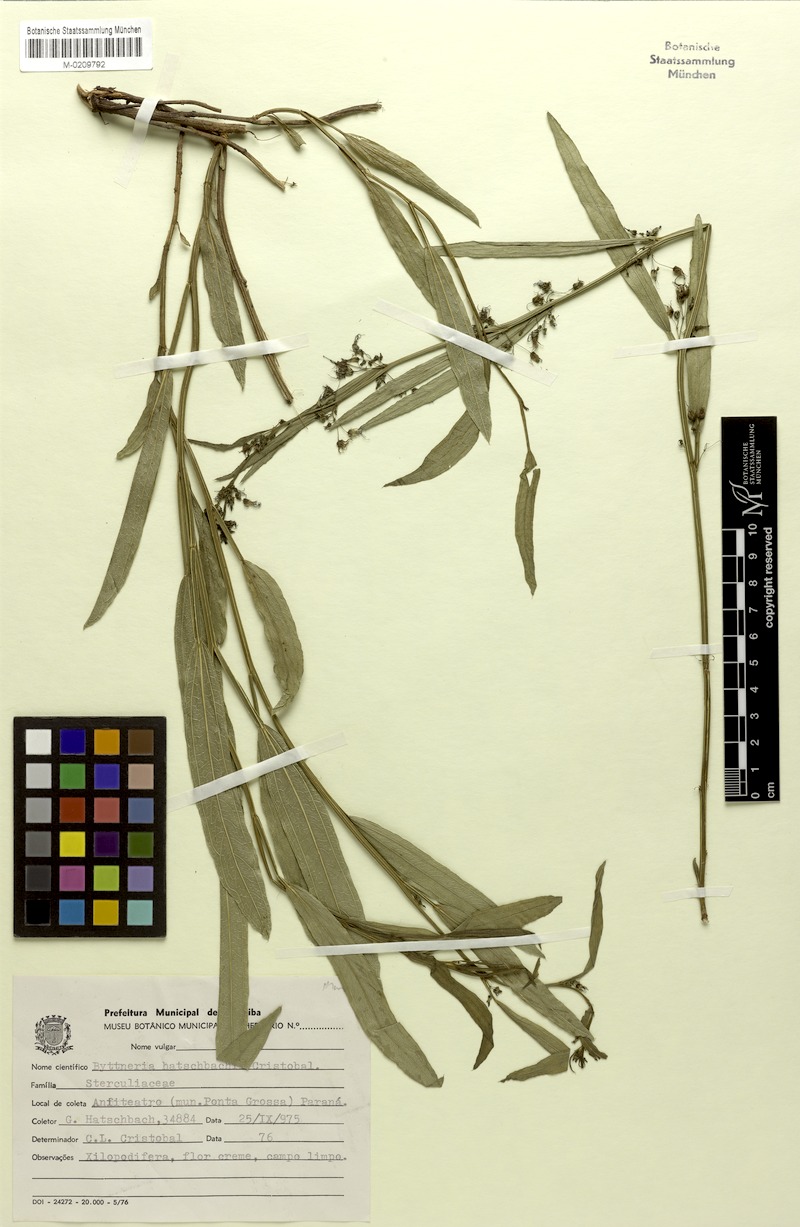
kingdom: Plantae
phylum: Tracheophyta
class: Magnoliopsida
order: Malvales
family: Malvaceae
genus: Byttneria
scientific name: Byttneria hatschbachii
